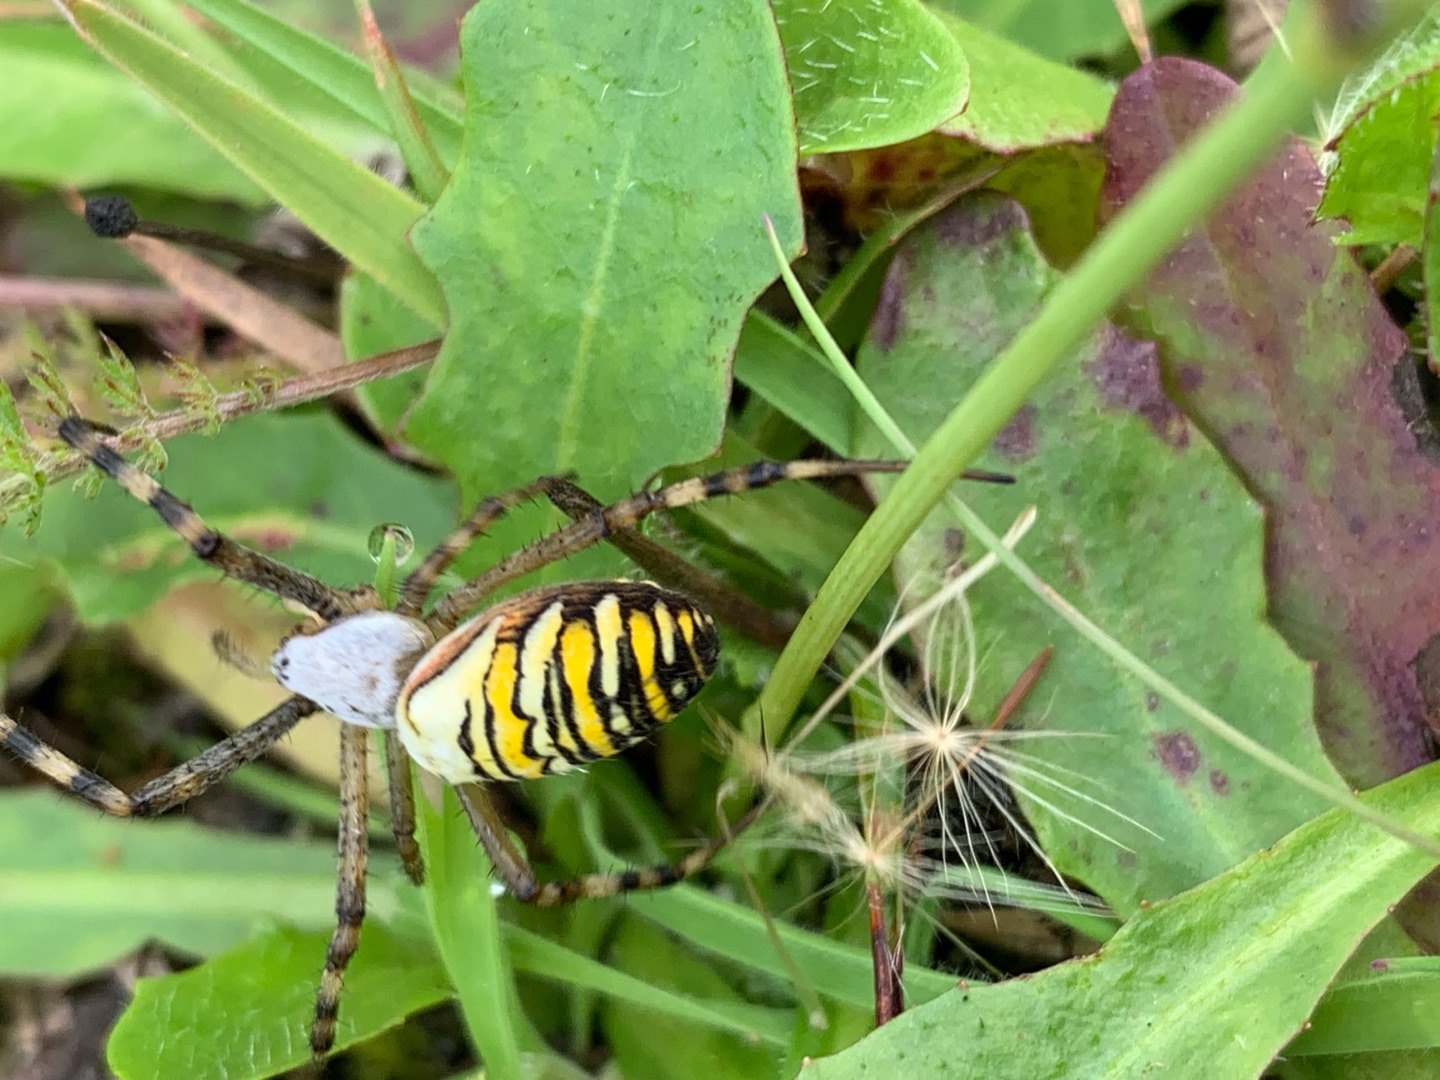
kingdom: Animalia
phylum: Arthropoda
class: Arachnida
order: Araneae
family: Araneidae
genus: Argiope
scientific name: Argiope bruennichi
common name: Hvepseedderkop
